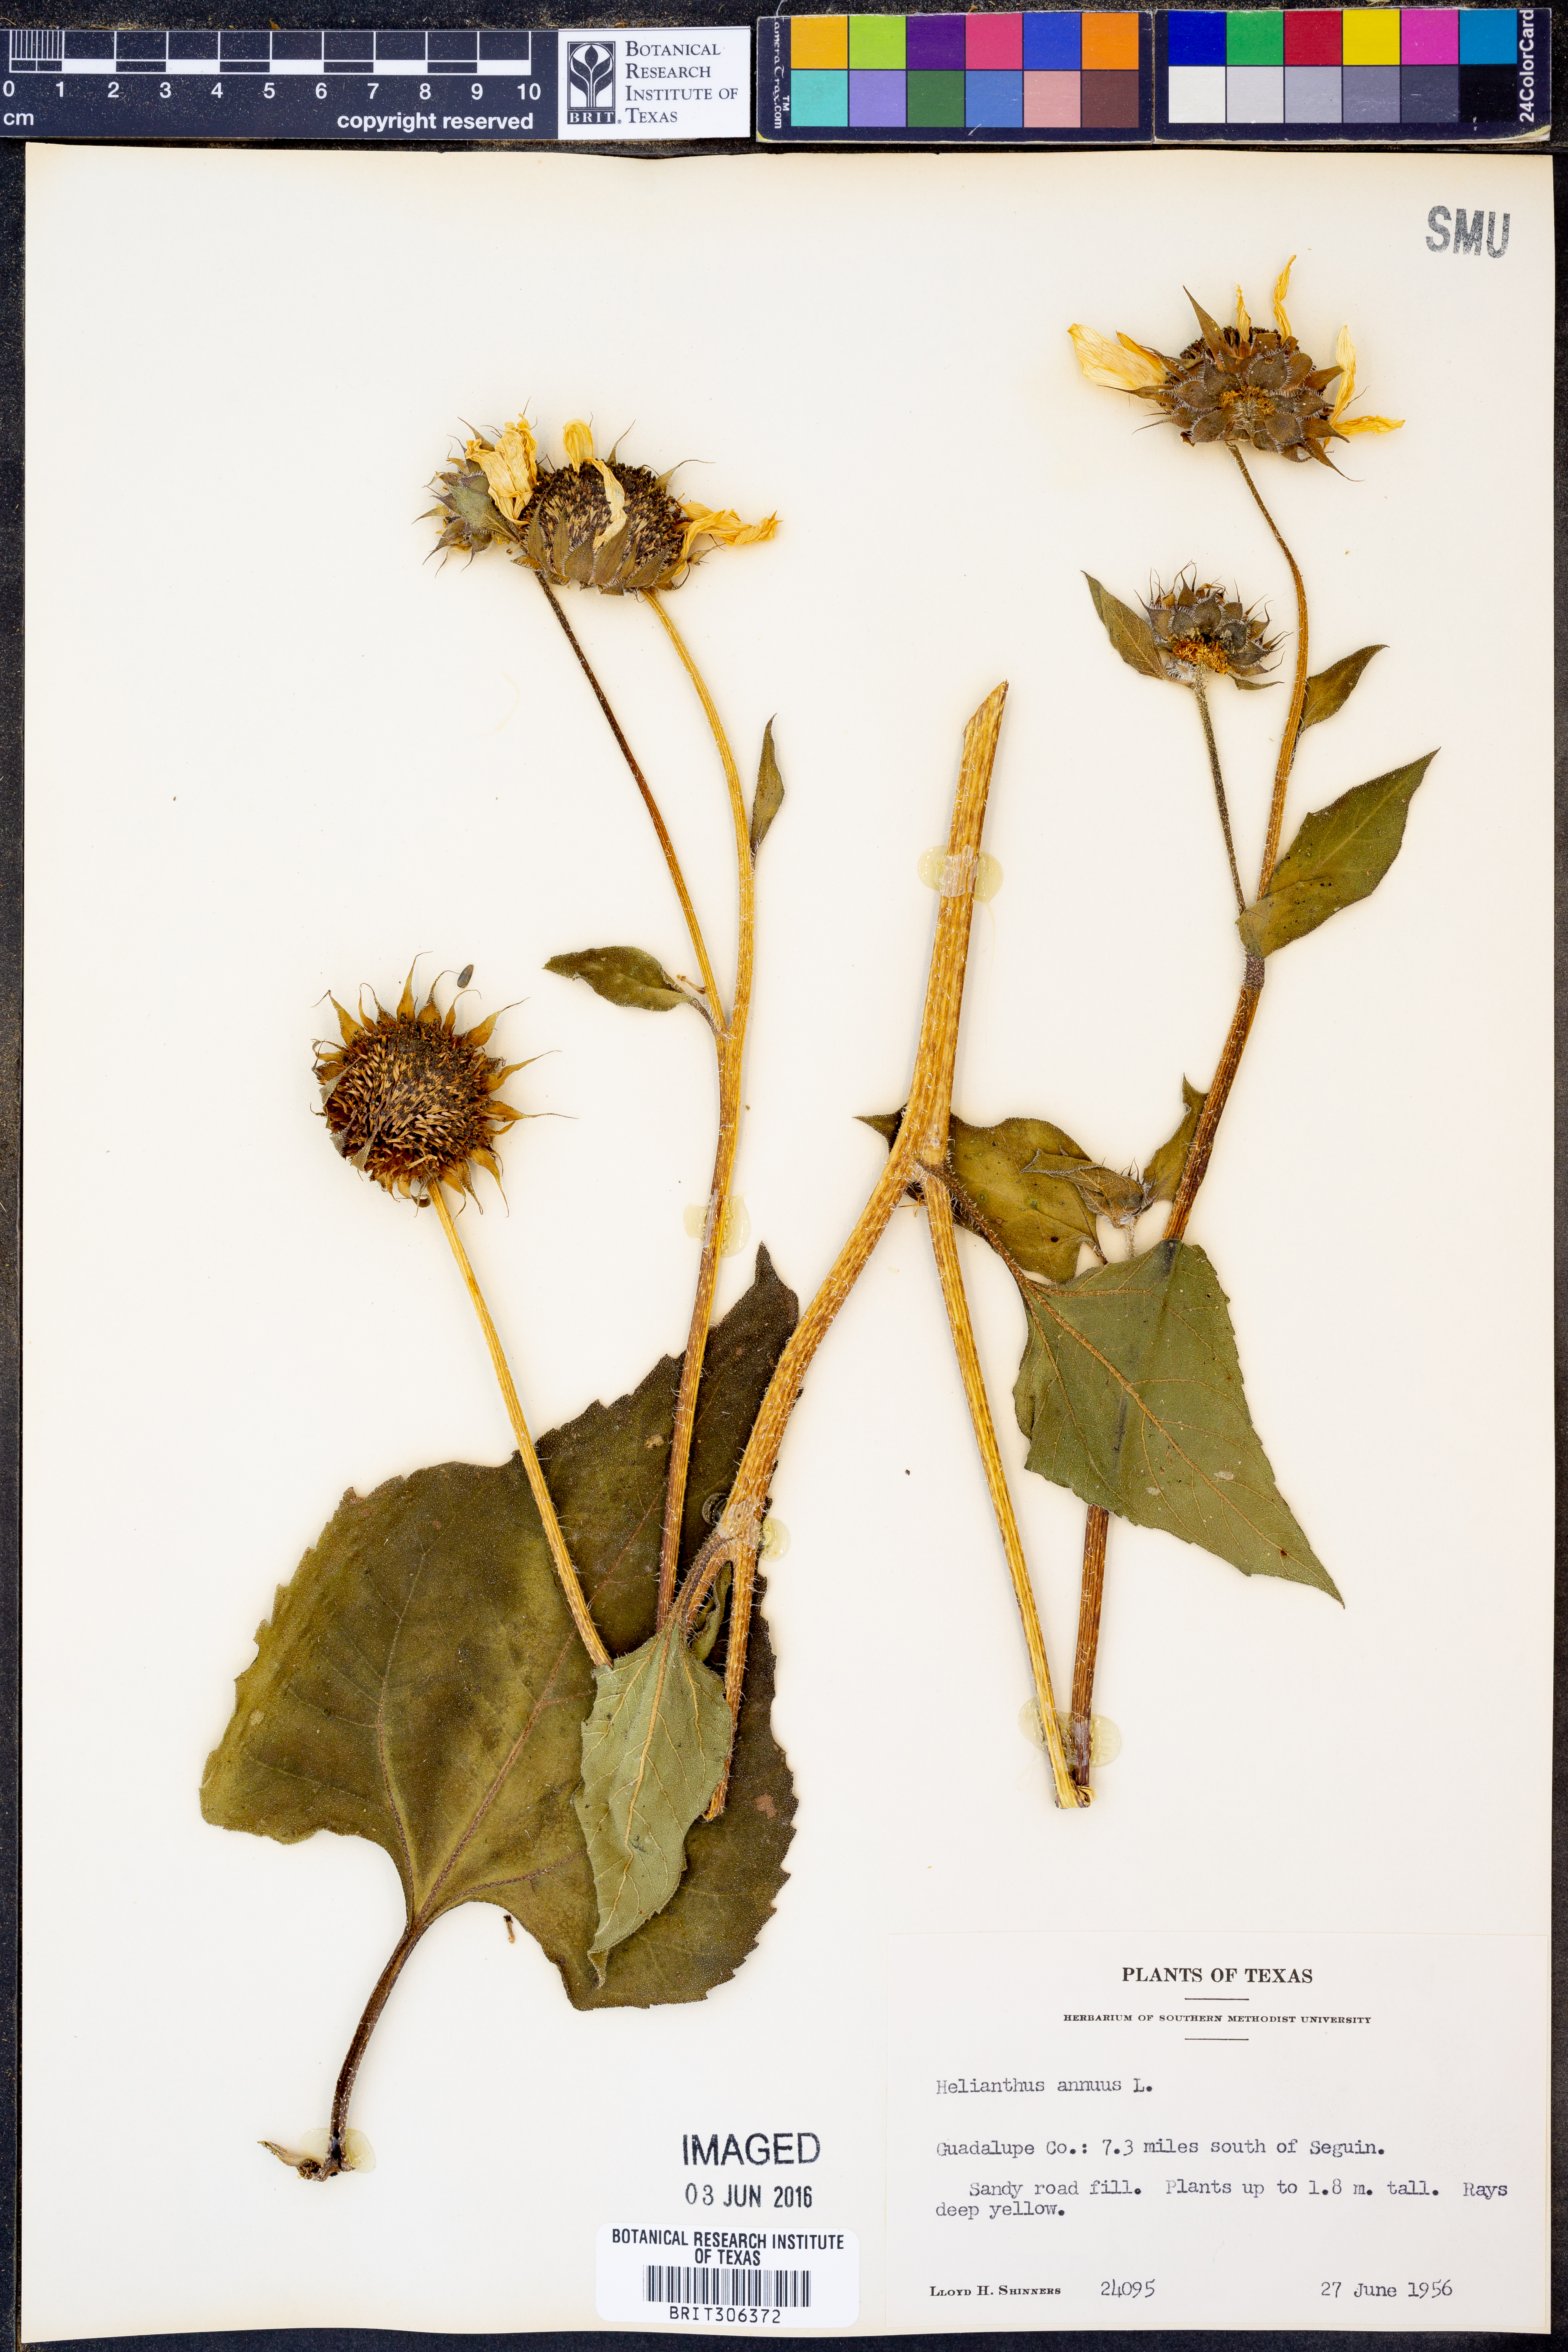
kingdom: Plantae
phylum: Tracheophyta
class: Magnoliopsida
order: Asterales
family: Asteraceae
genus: Helianthus
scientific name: Helianthus annuus
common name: Sunflower
